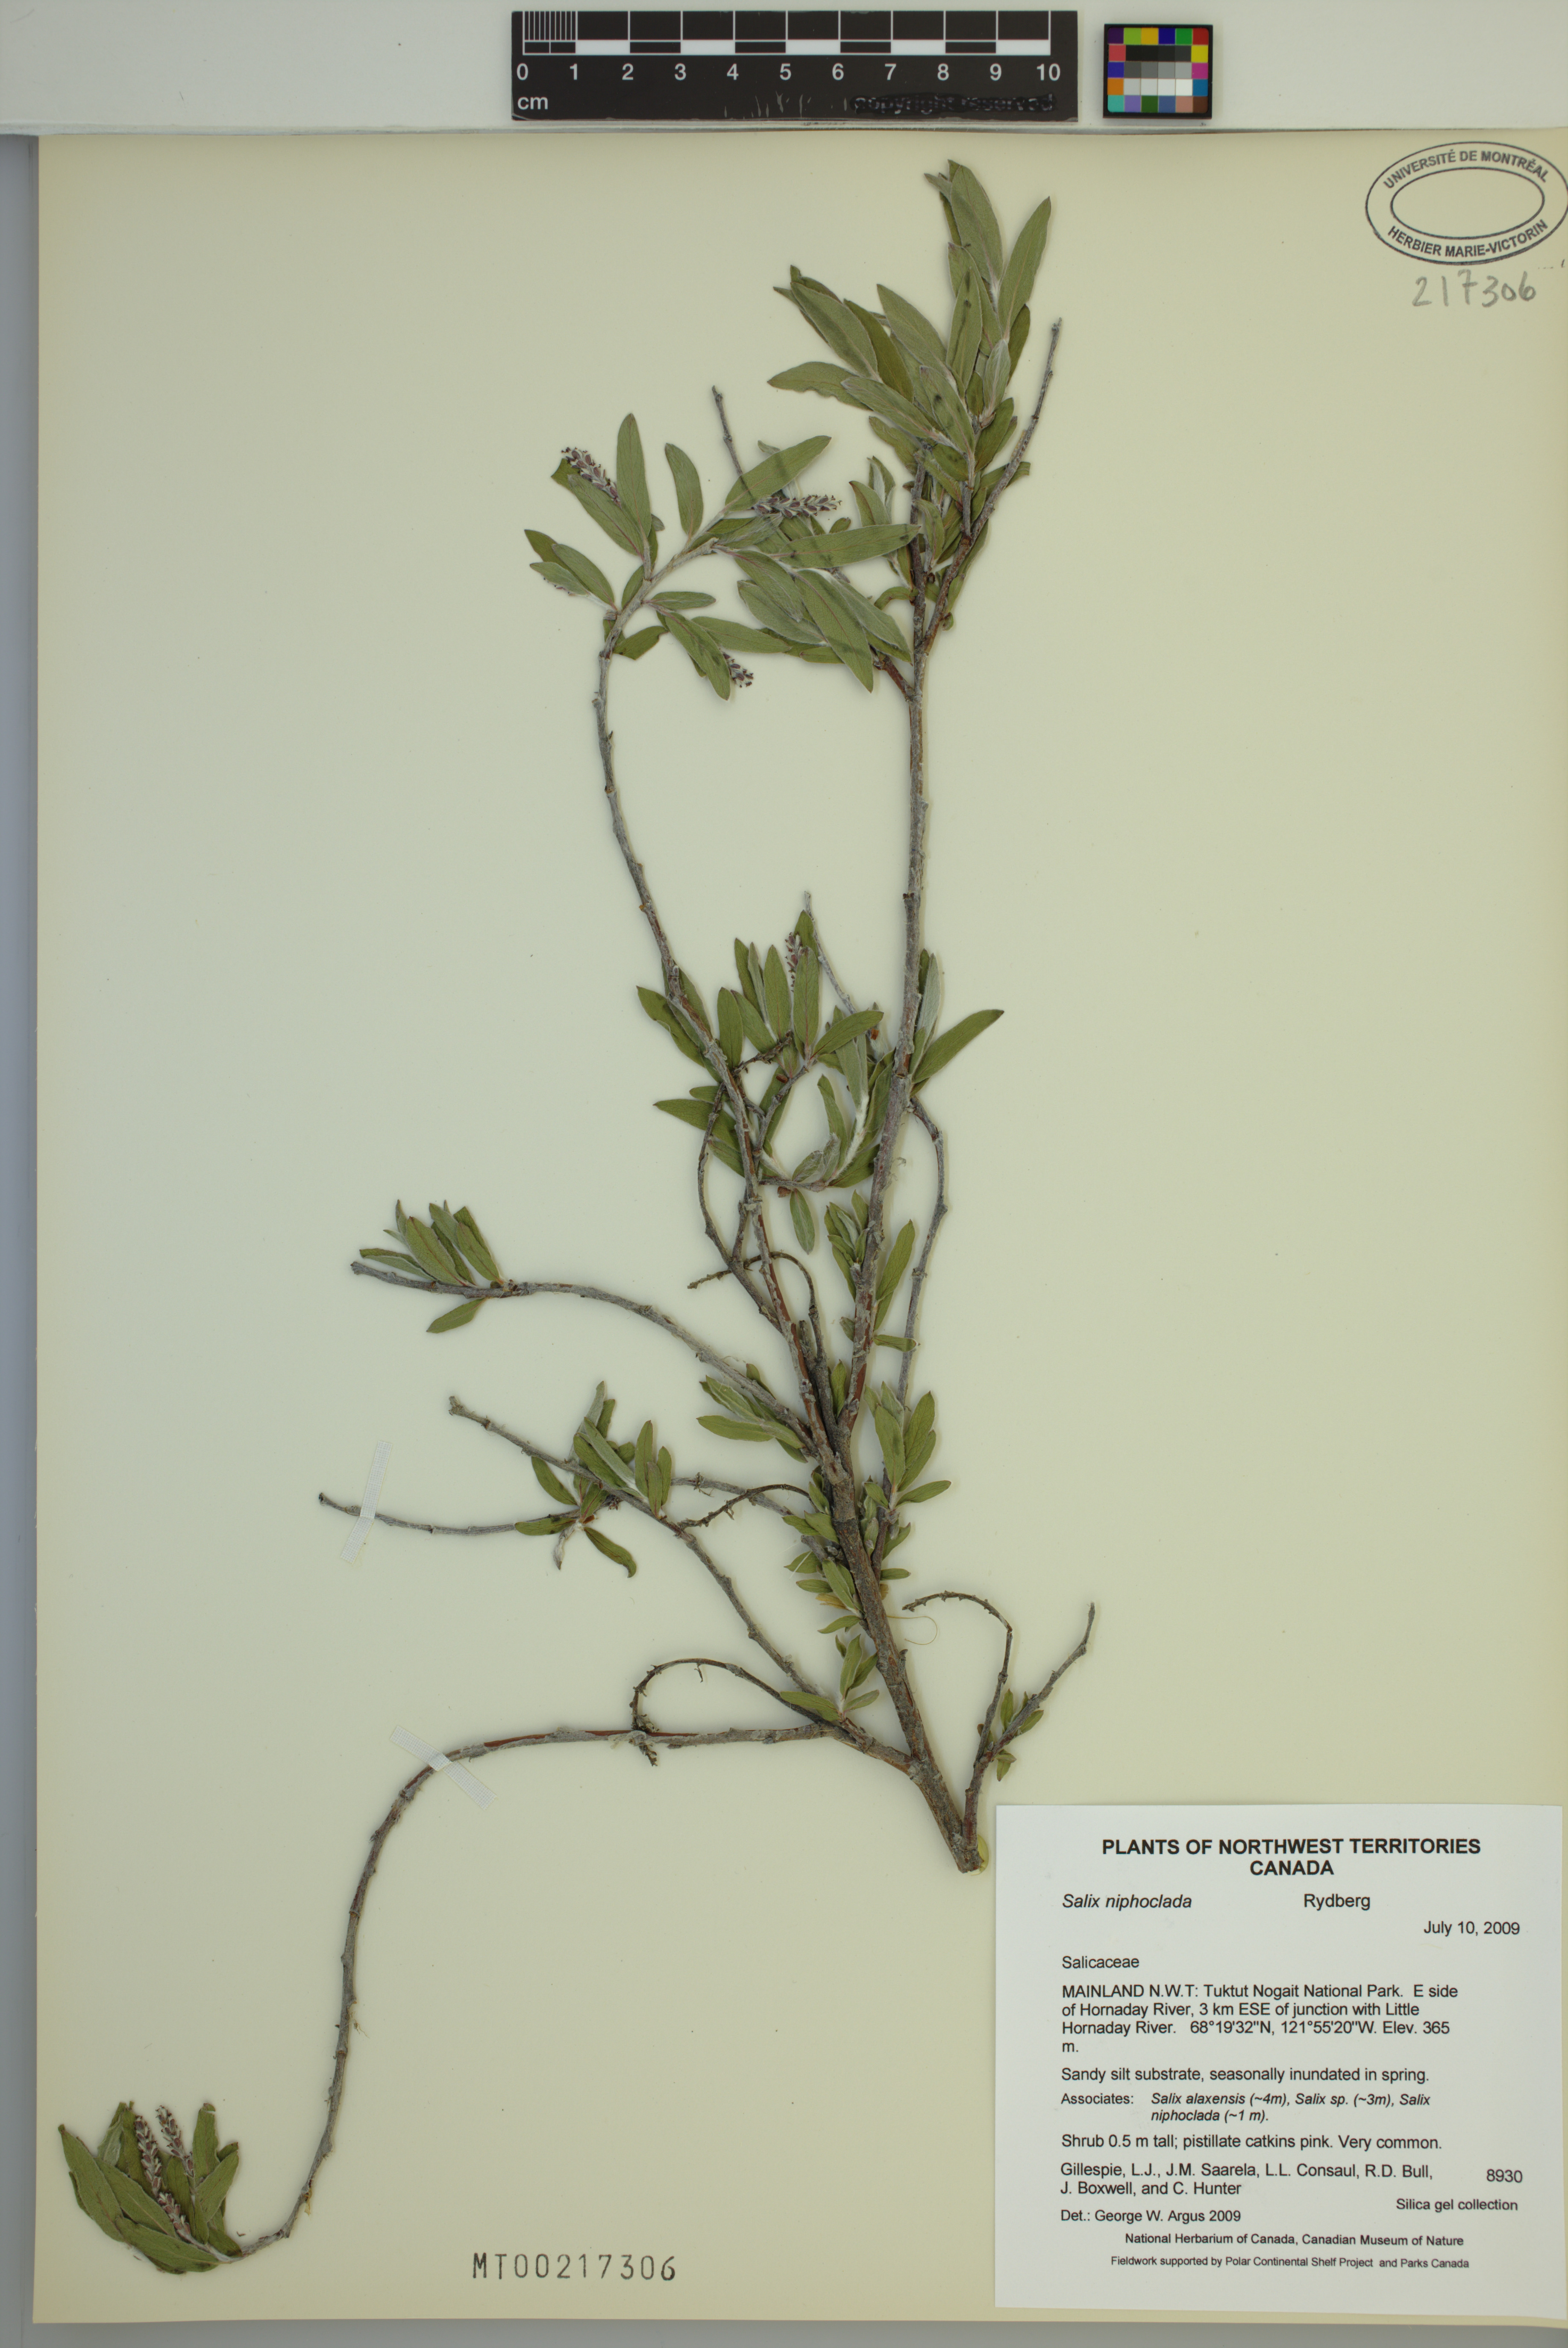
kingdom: Plantae
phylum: Tracheophyta
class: Magnoliopsida
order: Malpighiales
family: Salicaceae
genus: Salix
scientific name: Salix niphoclada
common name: Barren-ground willow
